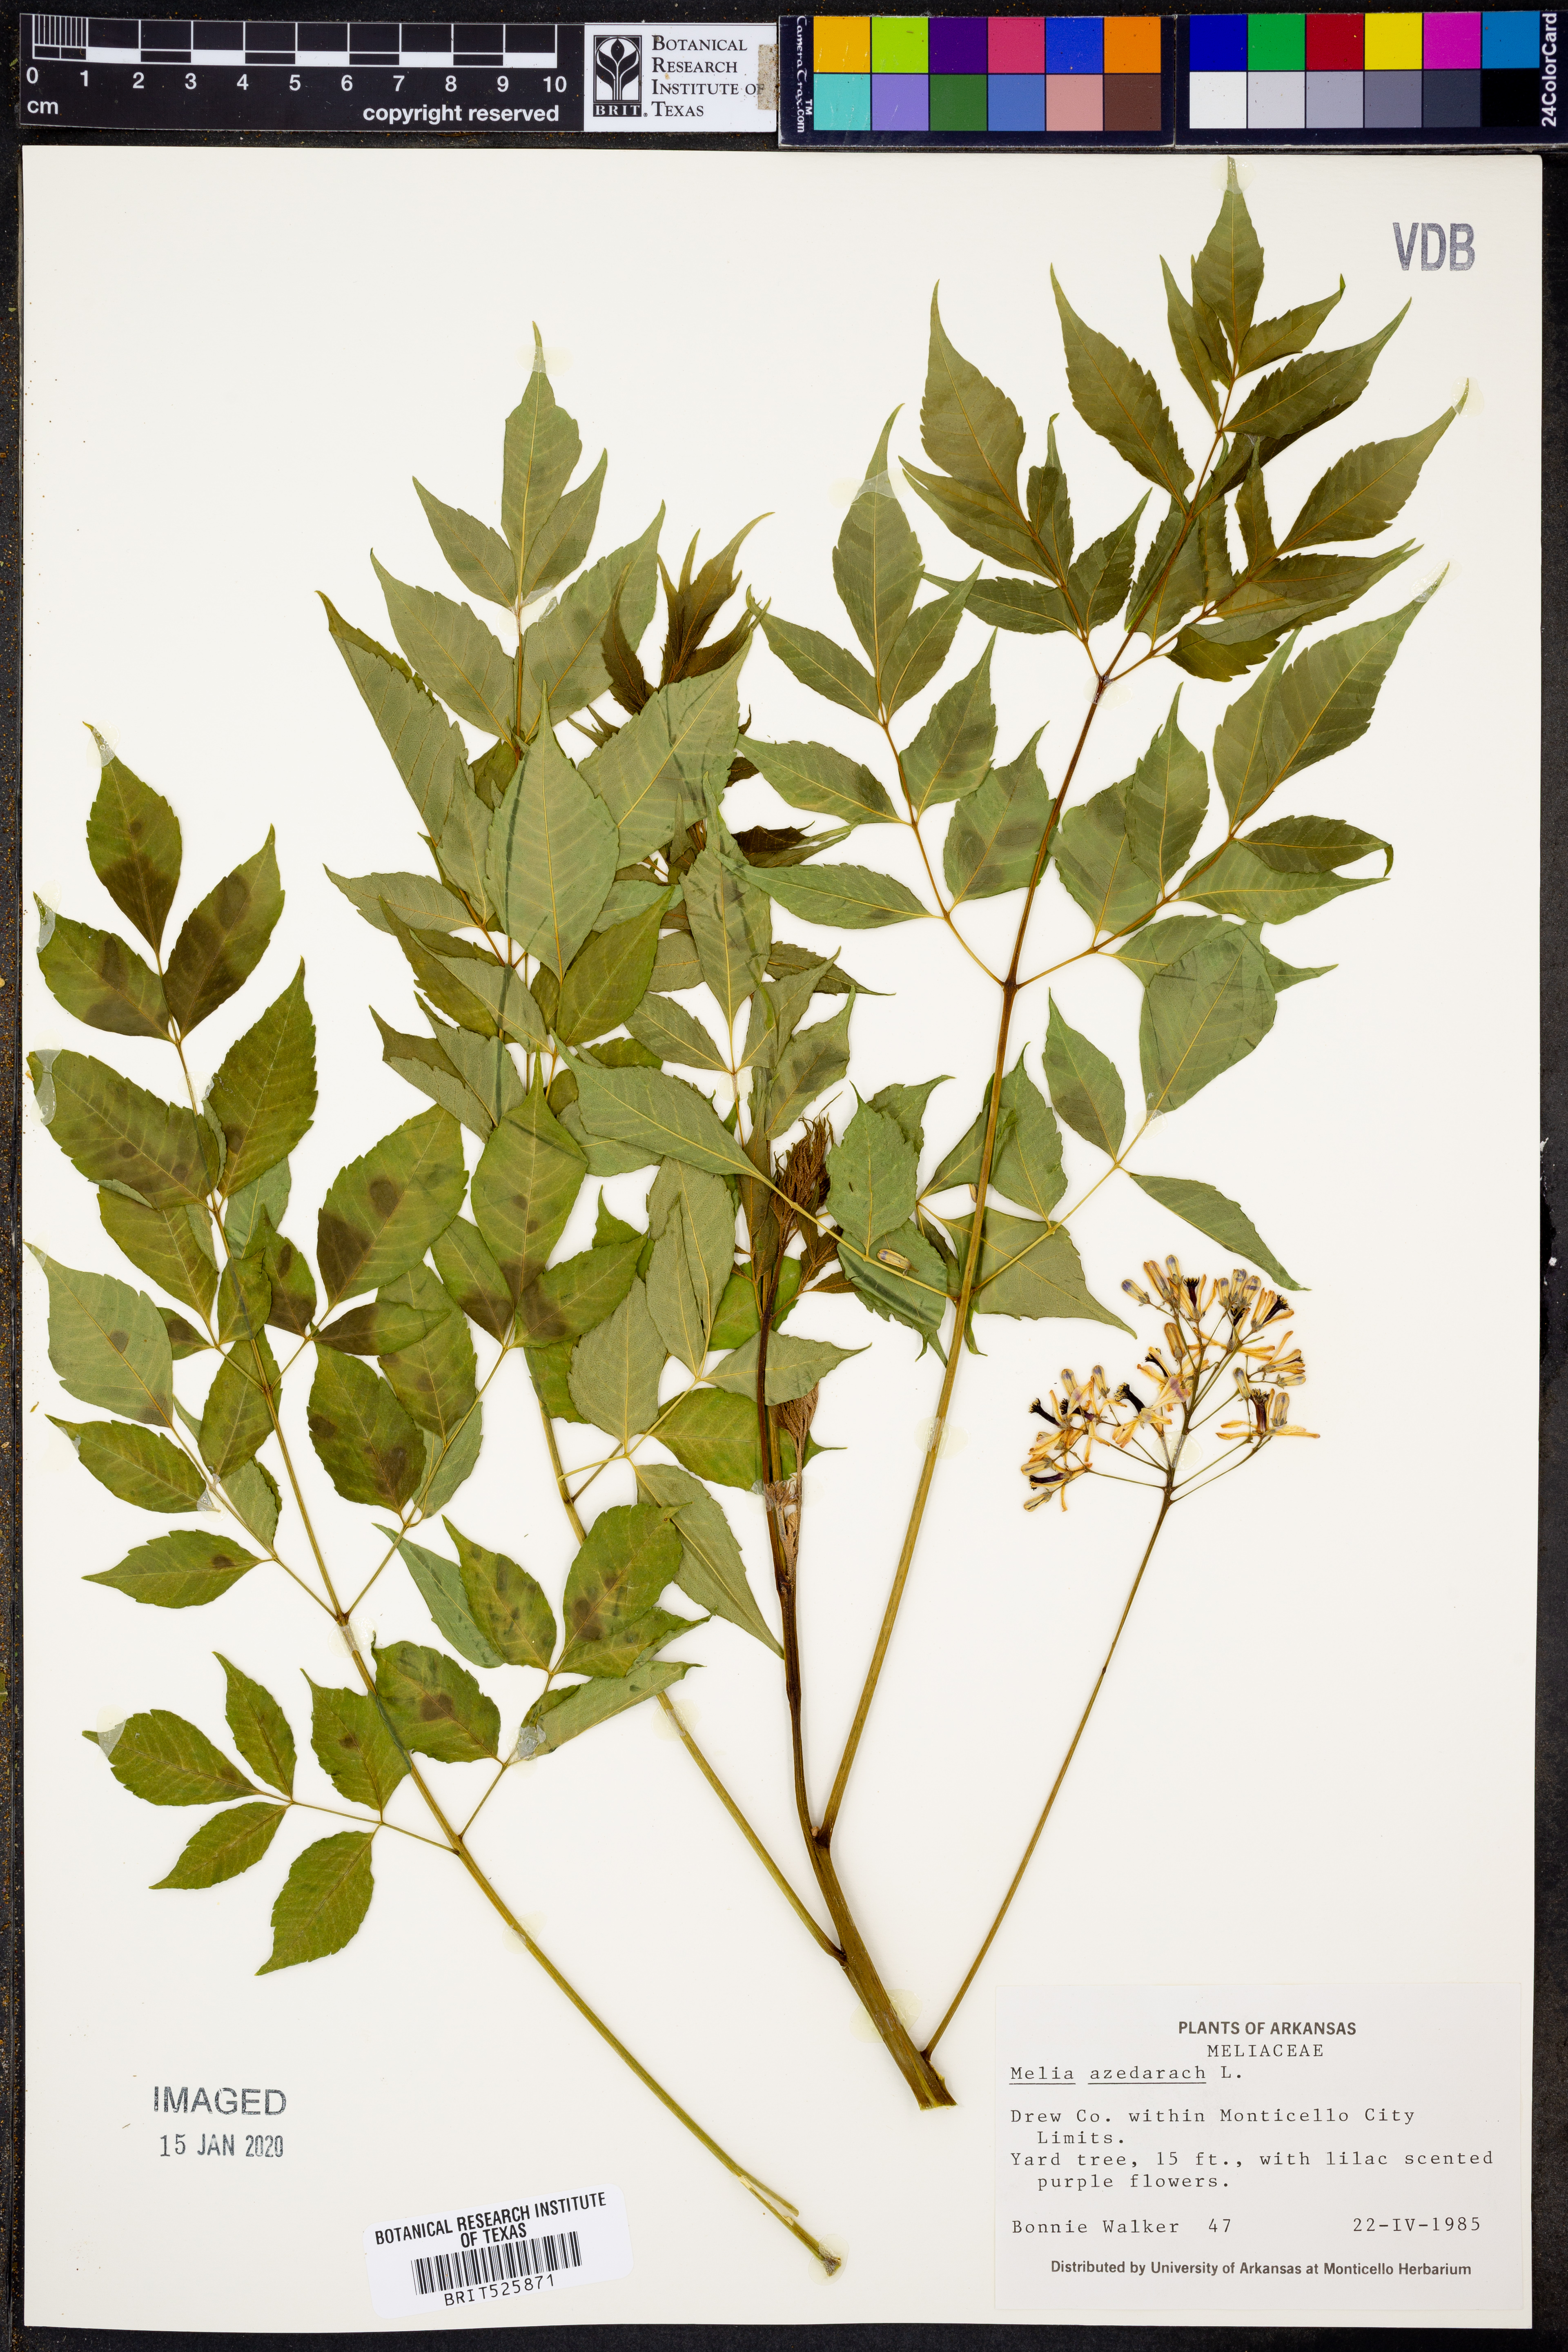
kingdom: Plantae
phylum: Tracheophyta
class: Magnoliopsida
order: Sapindales
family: Meliaceae
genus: Melia
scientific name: Melia azedarach
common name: Chinaberrytree
